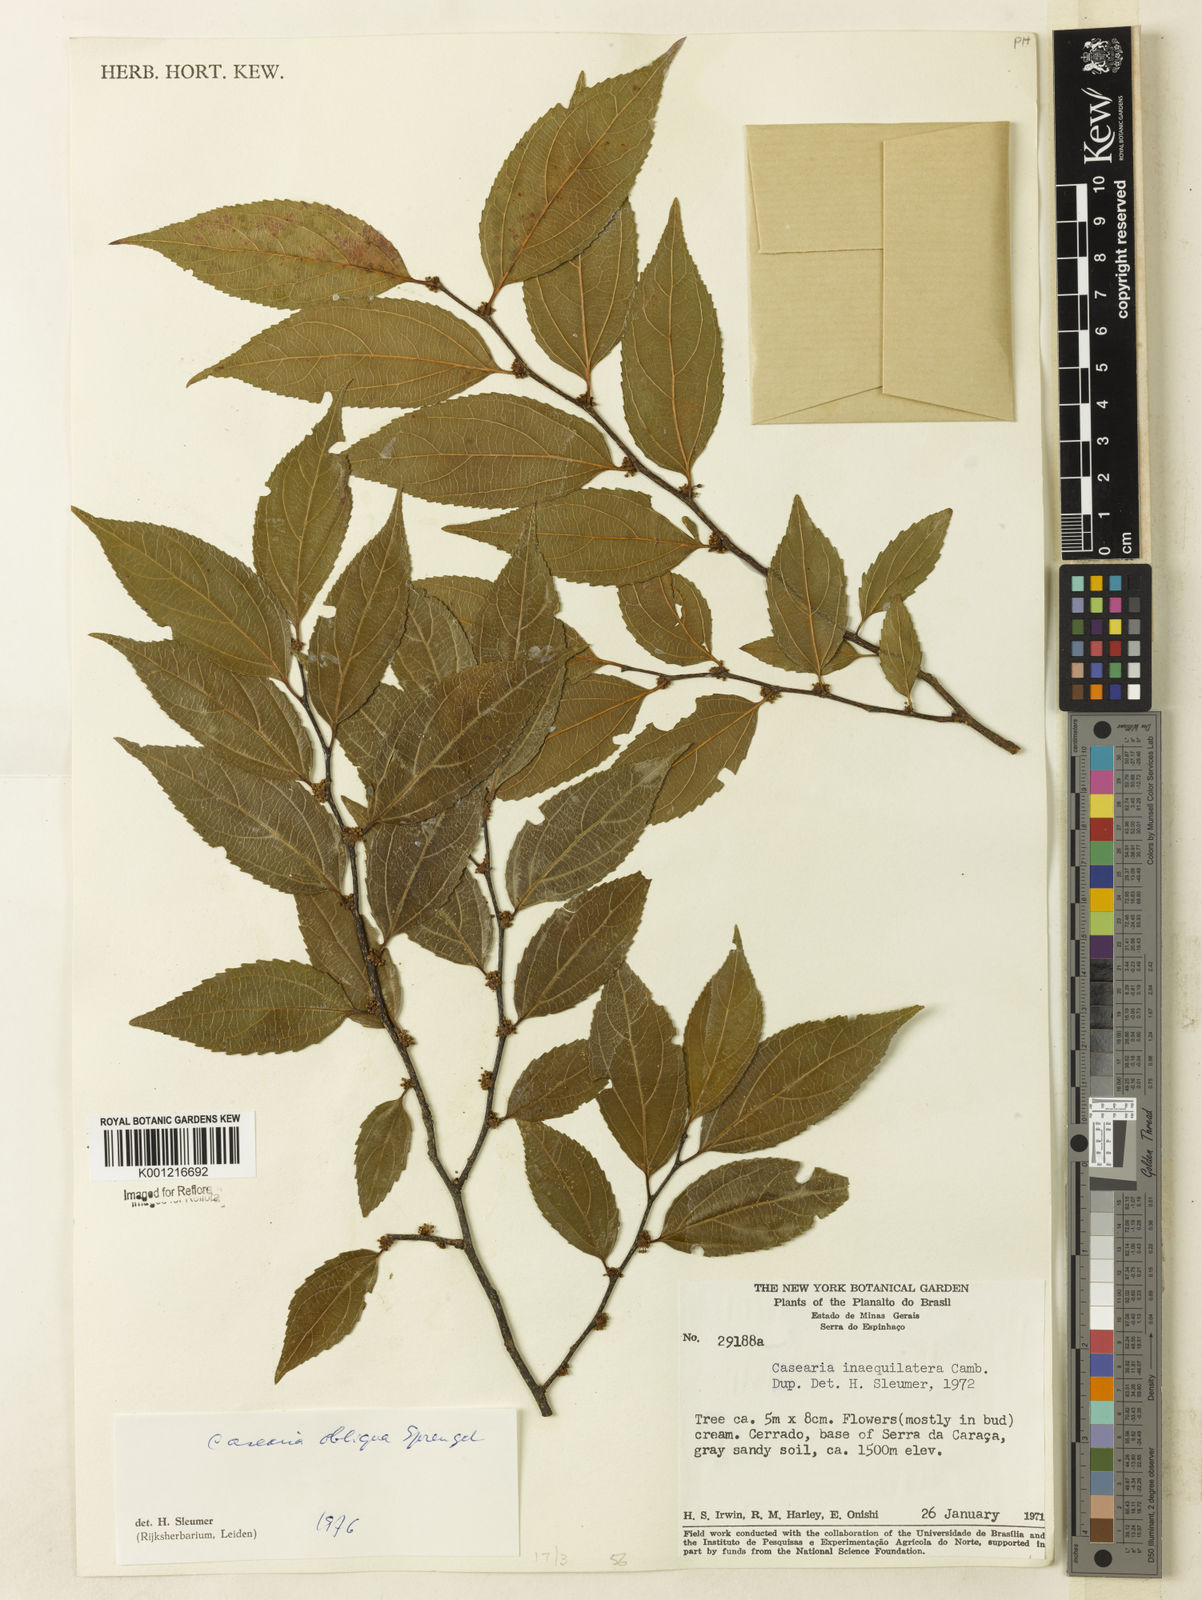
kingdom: Plantae
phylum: Tracheophyta
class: Magnoliopsida
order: Malpighiales
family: Salicaceae
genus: Casearia
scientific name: Casearia obliqua
